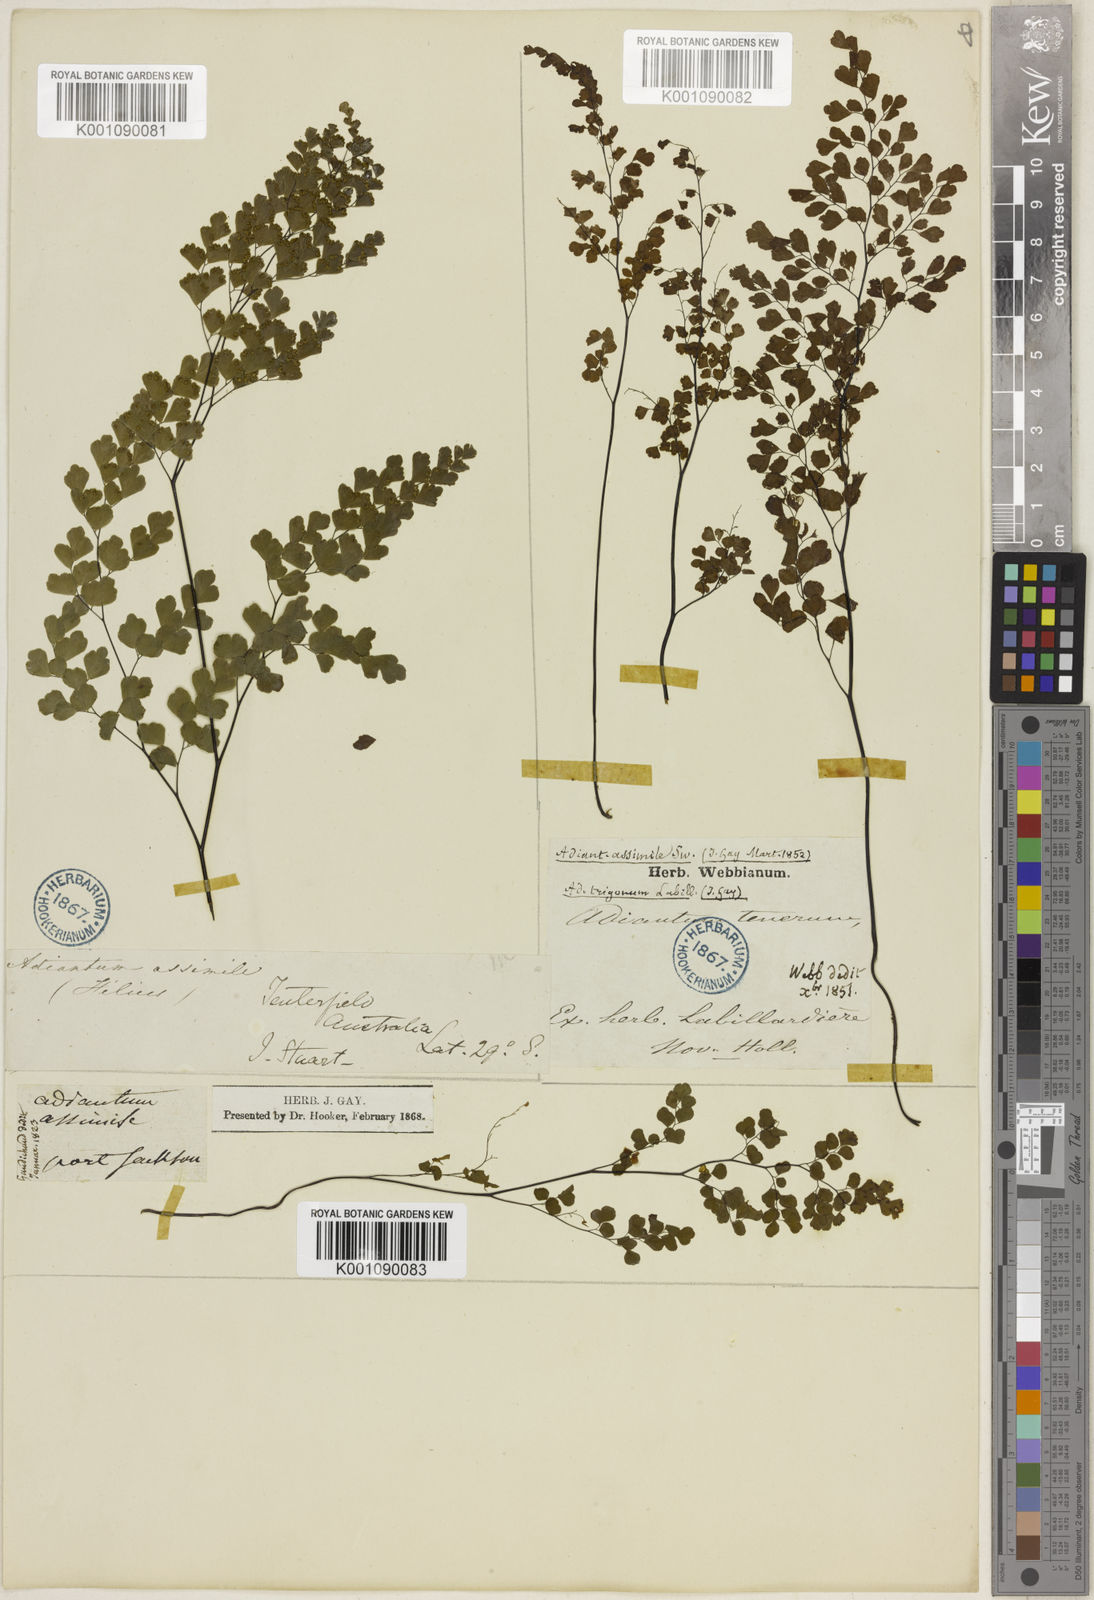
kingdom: Plantae
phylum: Tracheophyta
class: Polypodiopsida
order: Polypodiales
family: Pteridaceae
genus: Adiantum
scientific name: Adiantum aethiopicum
